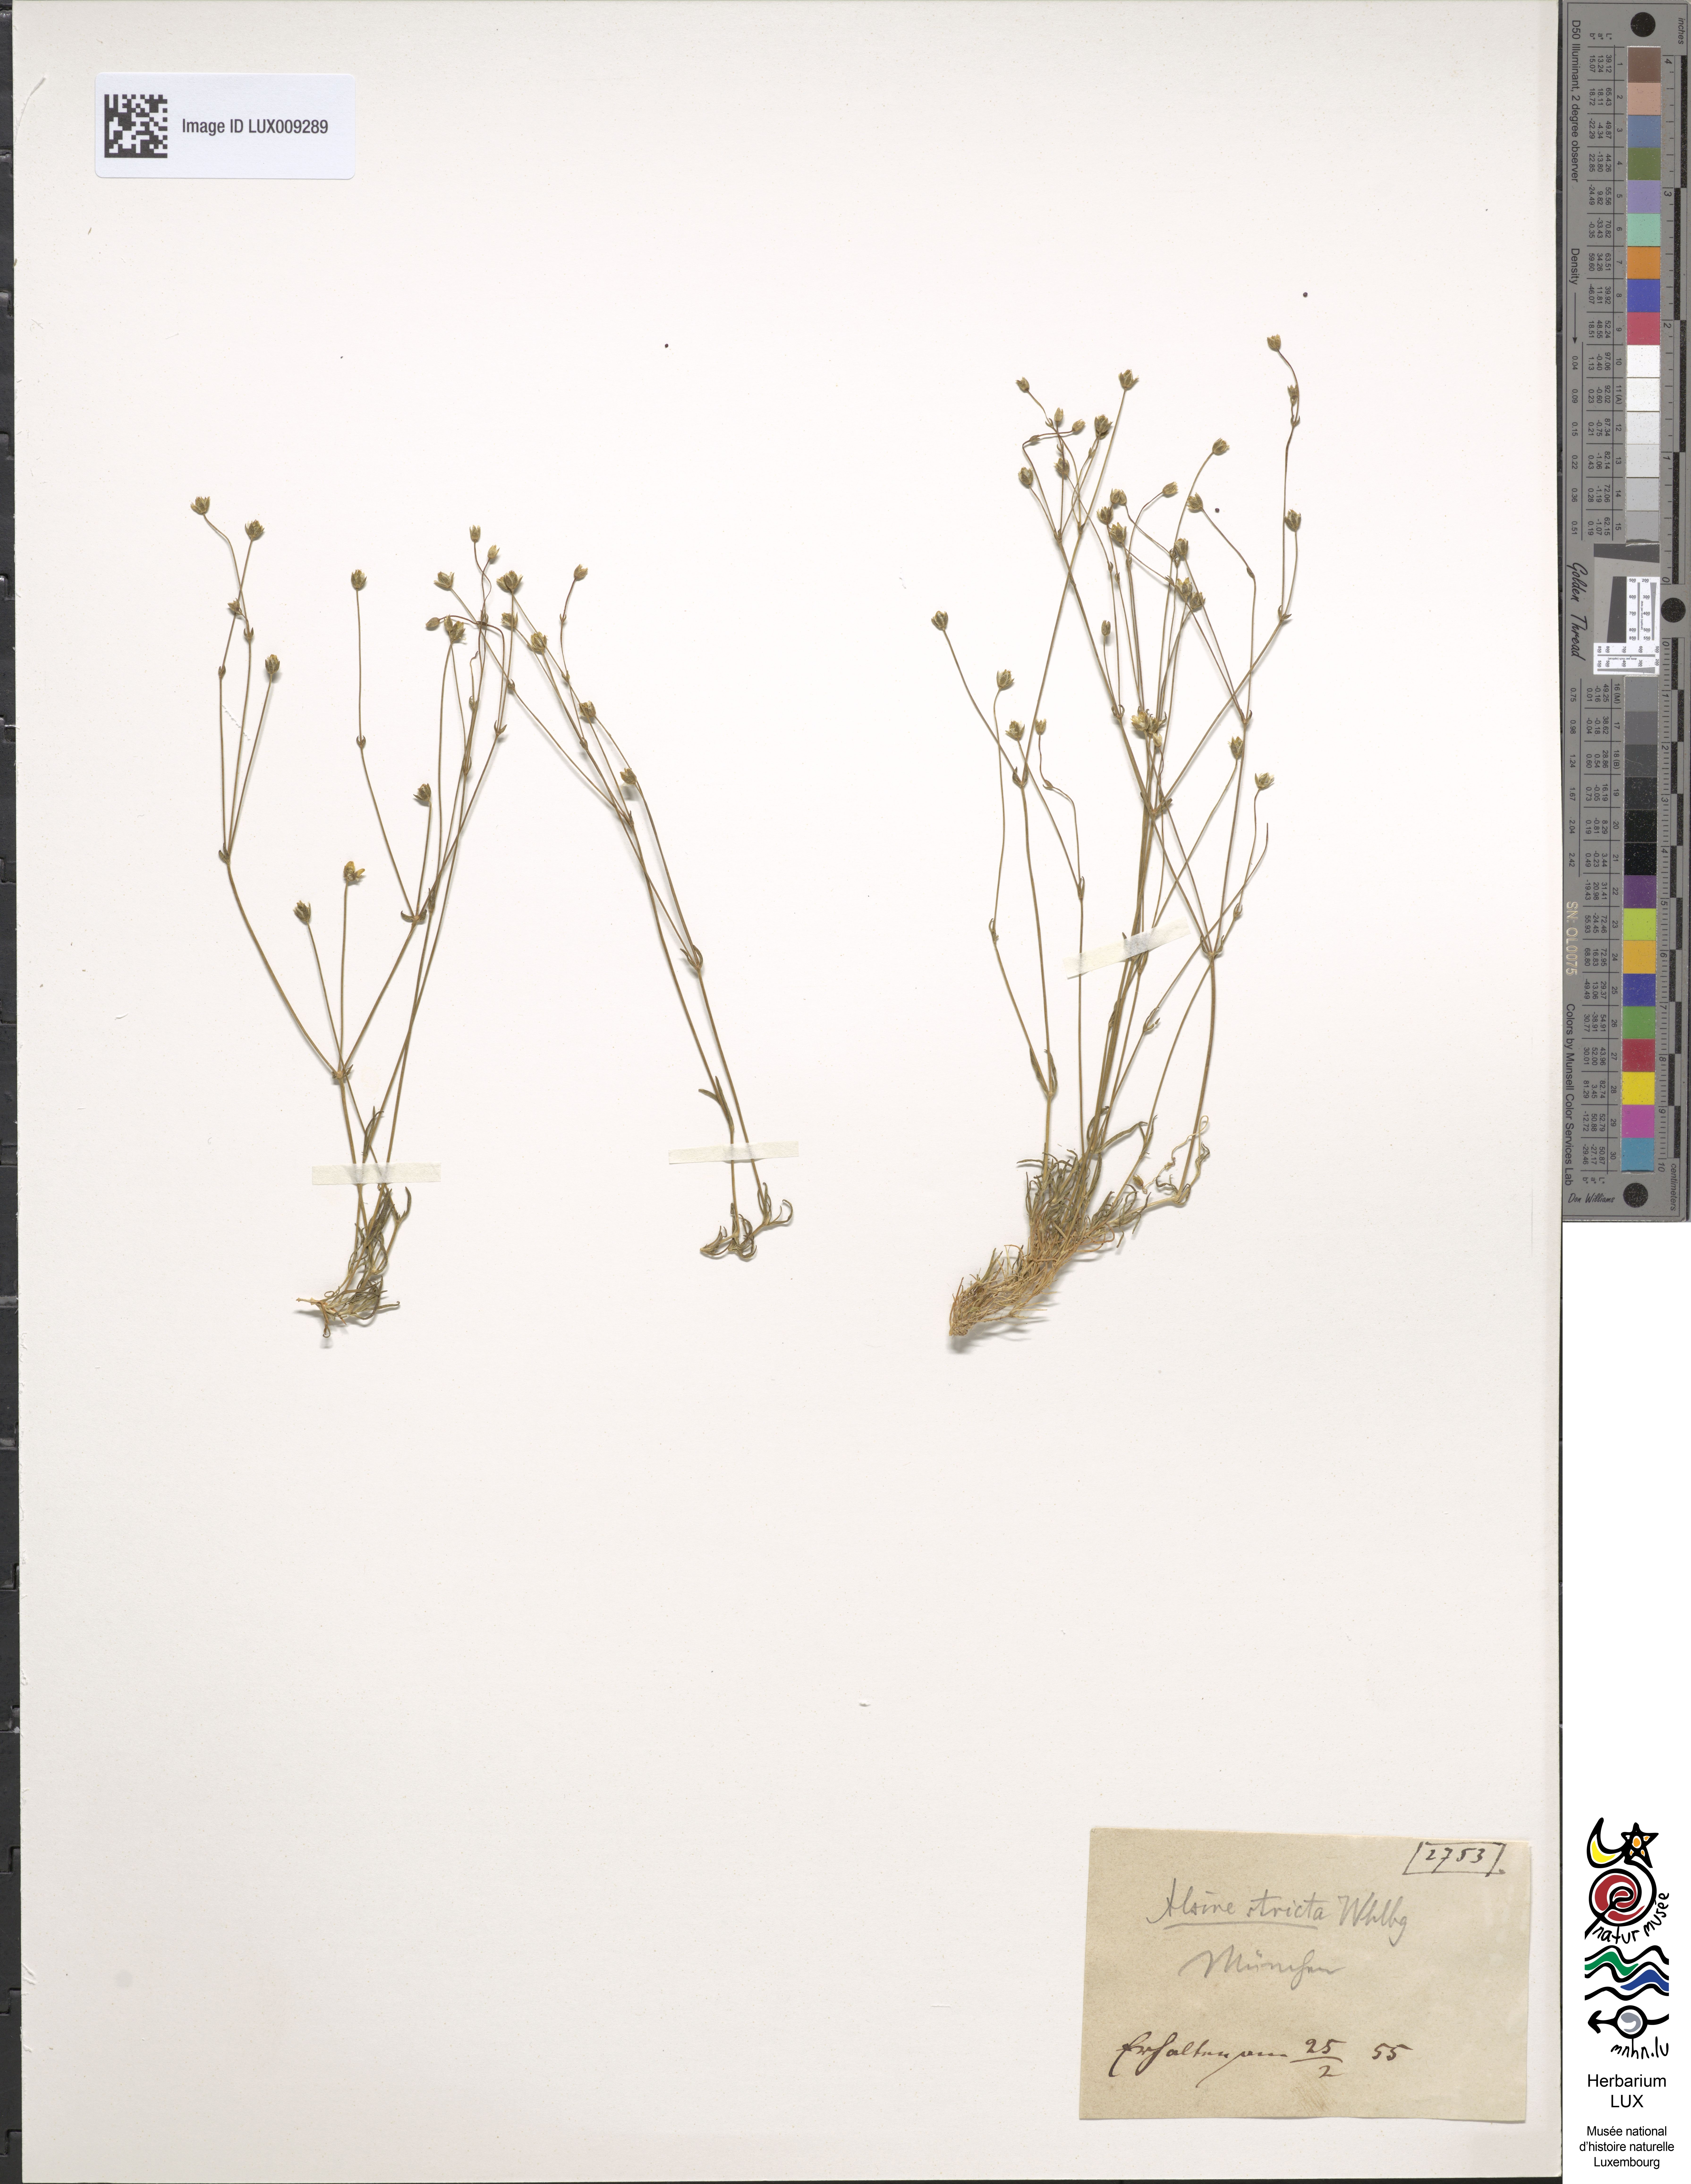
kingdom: Plantae
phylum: Tracheophyta
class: Magnoliopsida
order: Caryophyllales
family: Caryophyllaceae
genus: Stellaria
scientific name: Stellaria longipes
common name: Goldie's starwort
